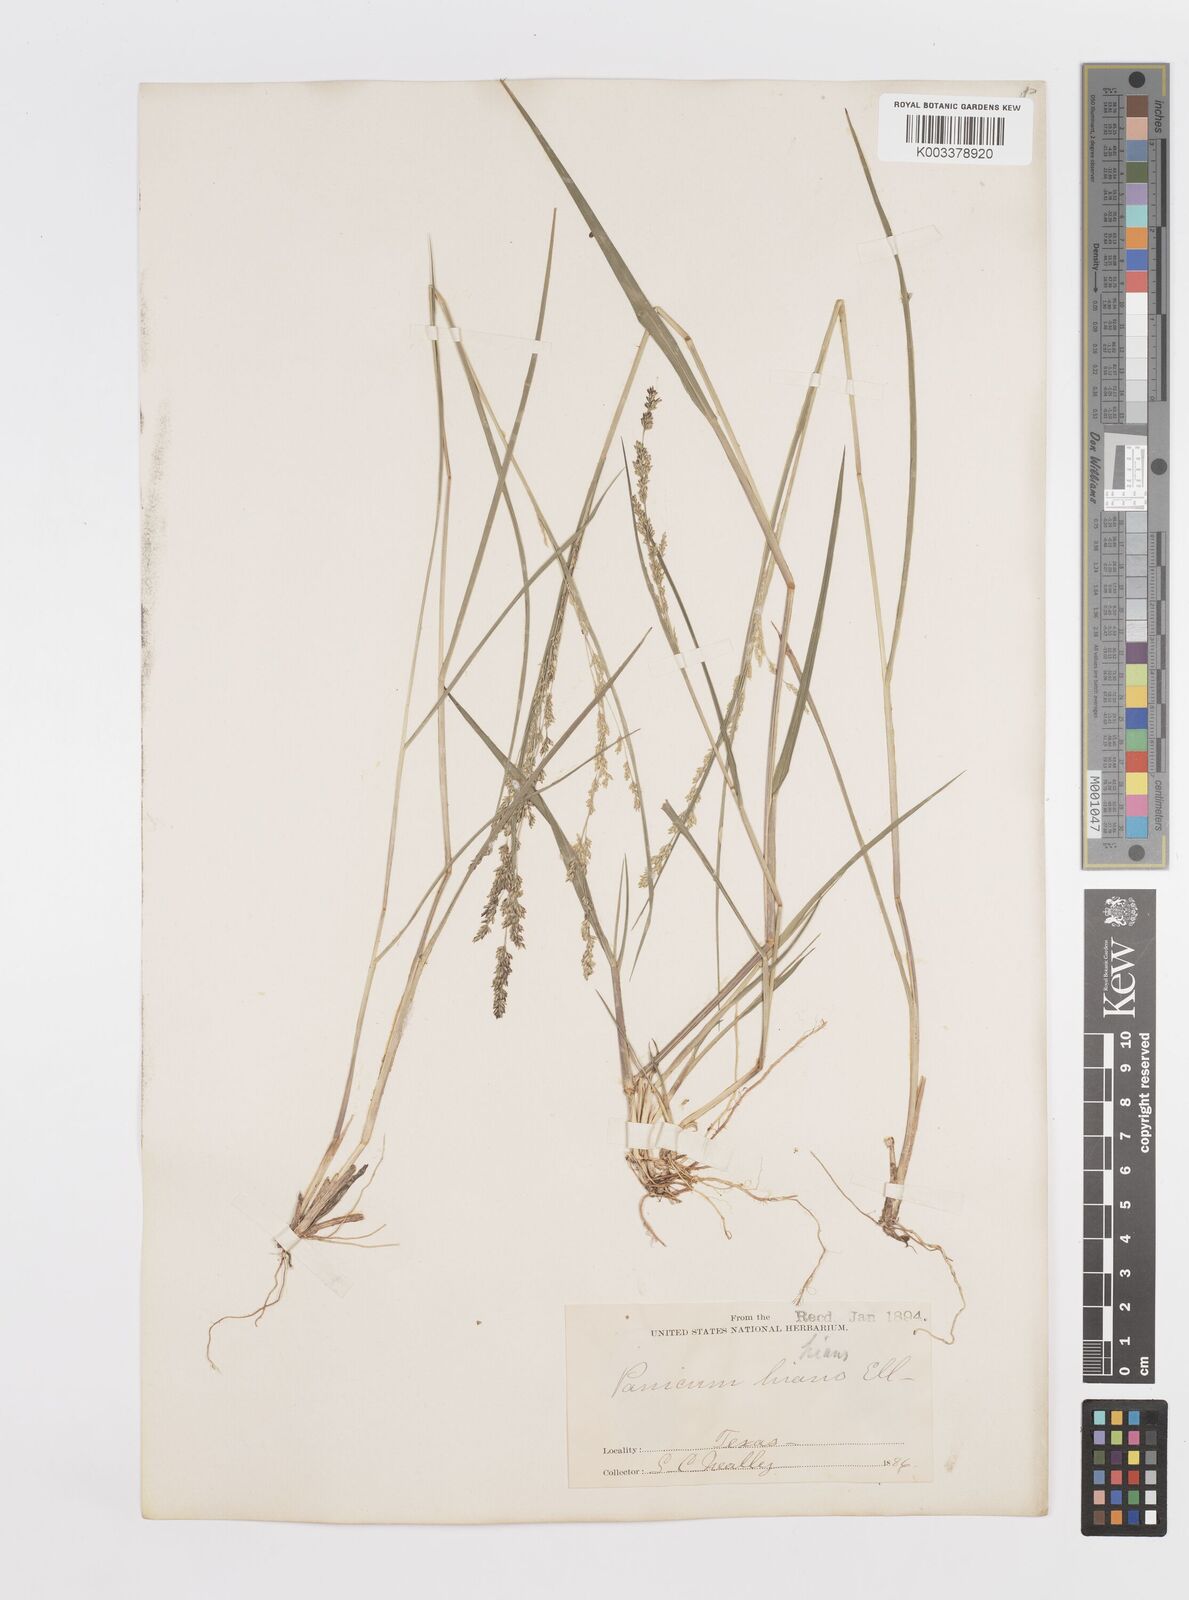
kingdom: Plantae
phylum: Tracheophyta
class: Liliopsida
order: Poales
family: Poaceae
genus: Steinchisma
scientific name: Steinchisma hians
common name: Gaping panic grass
